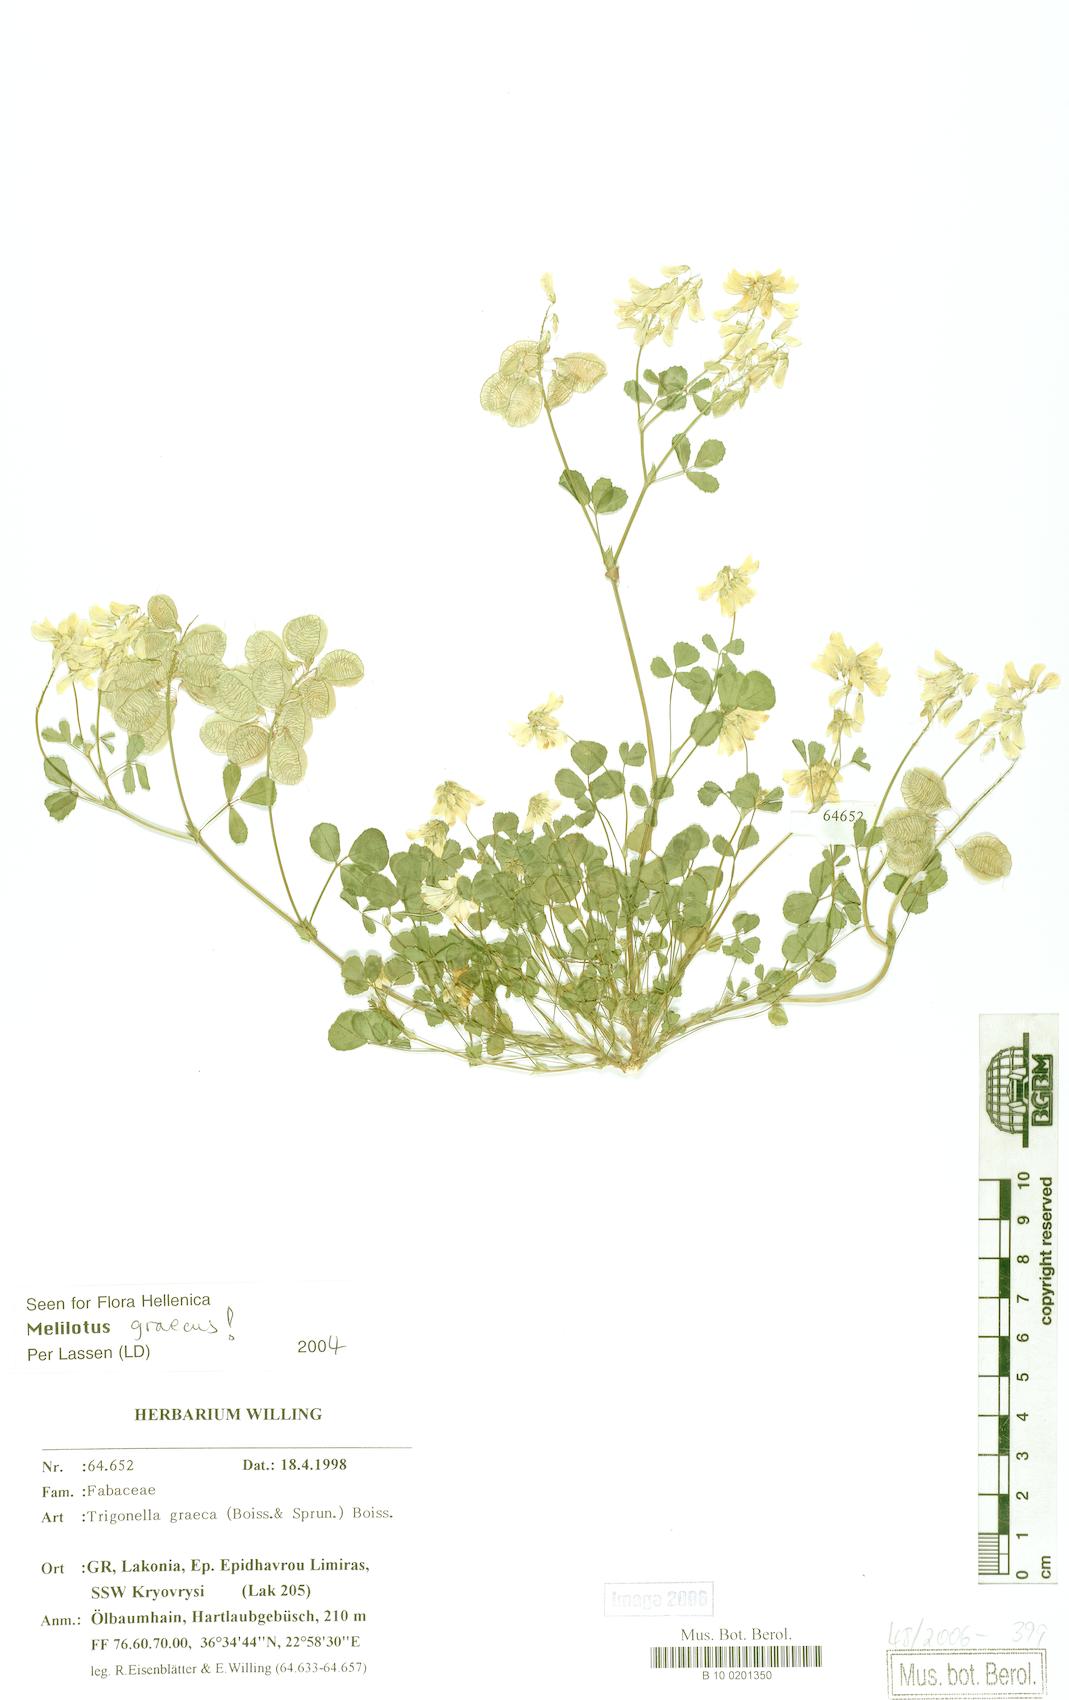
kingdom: Plantae
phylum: Tracheophyta
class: Magnoliopsida
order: Fabales
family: Fabaceae
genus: Trigonella
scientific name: Trigonella graeca
